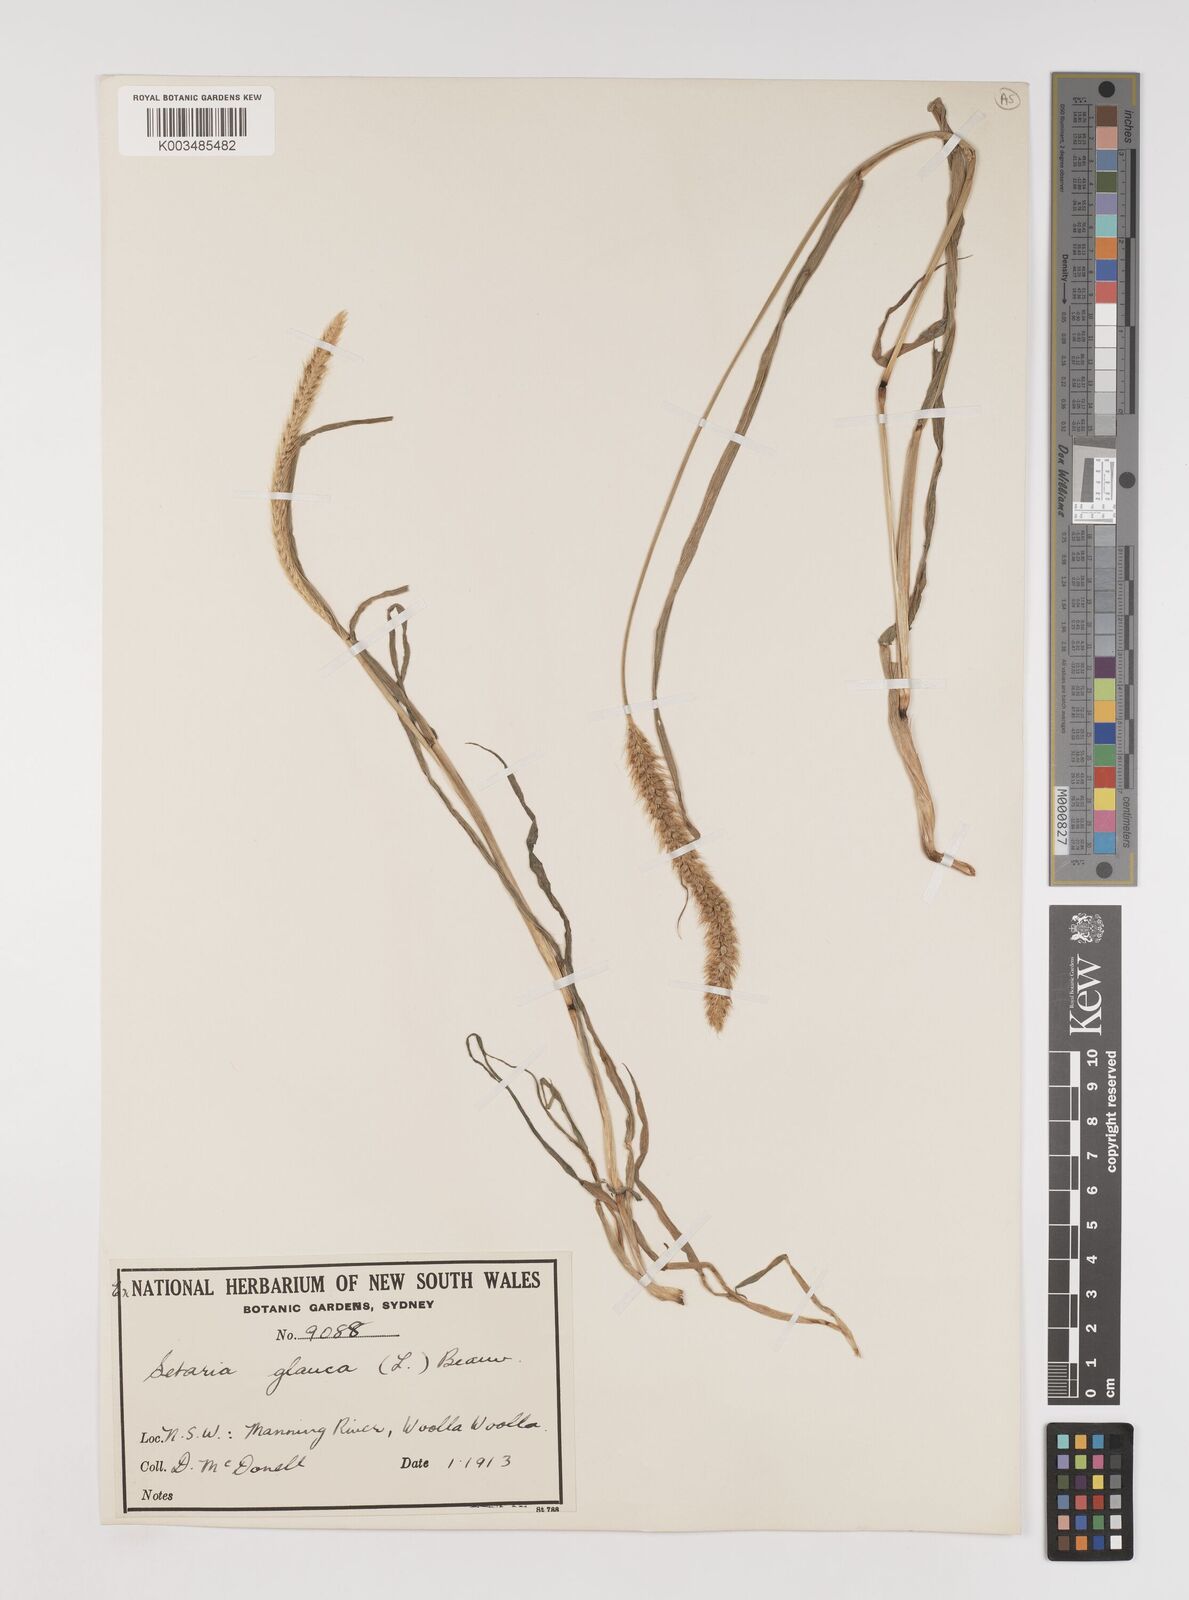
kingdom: Plantae
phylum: Tracheophyta
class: Liliopsida
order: Poales
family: Poaceae
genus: Setaria
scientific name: Setaria pumila
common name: Yellow bristle-grass
